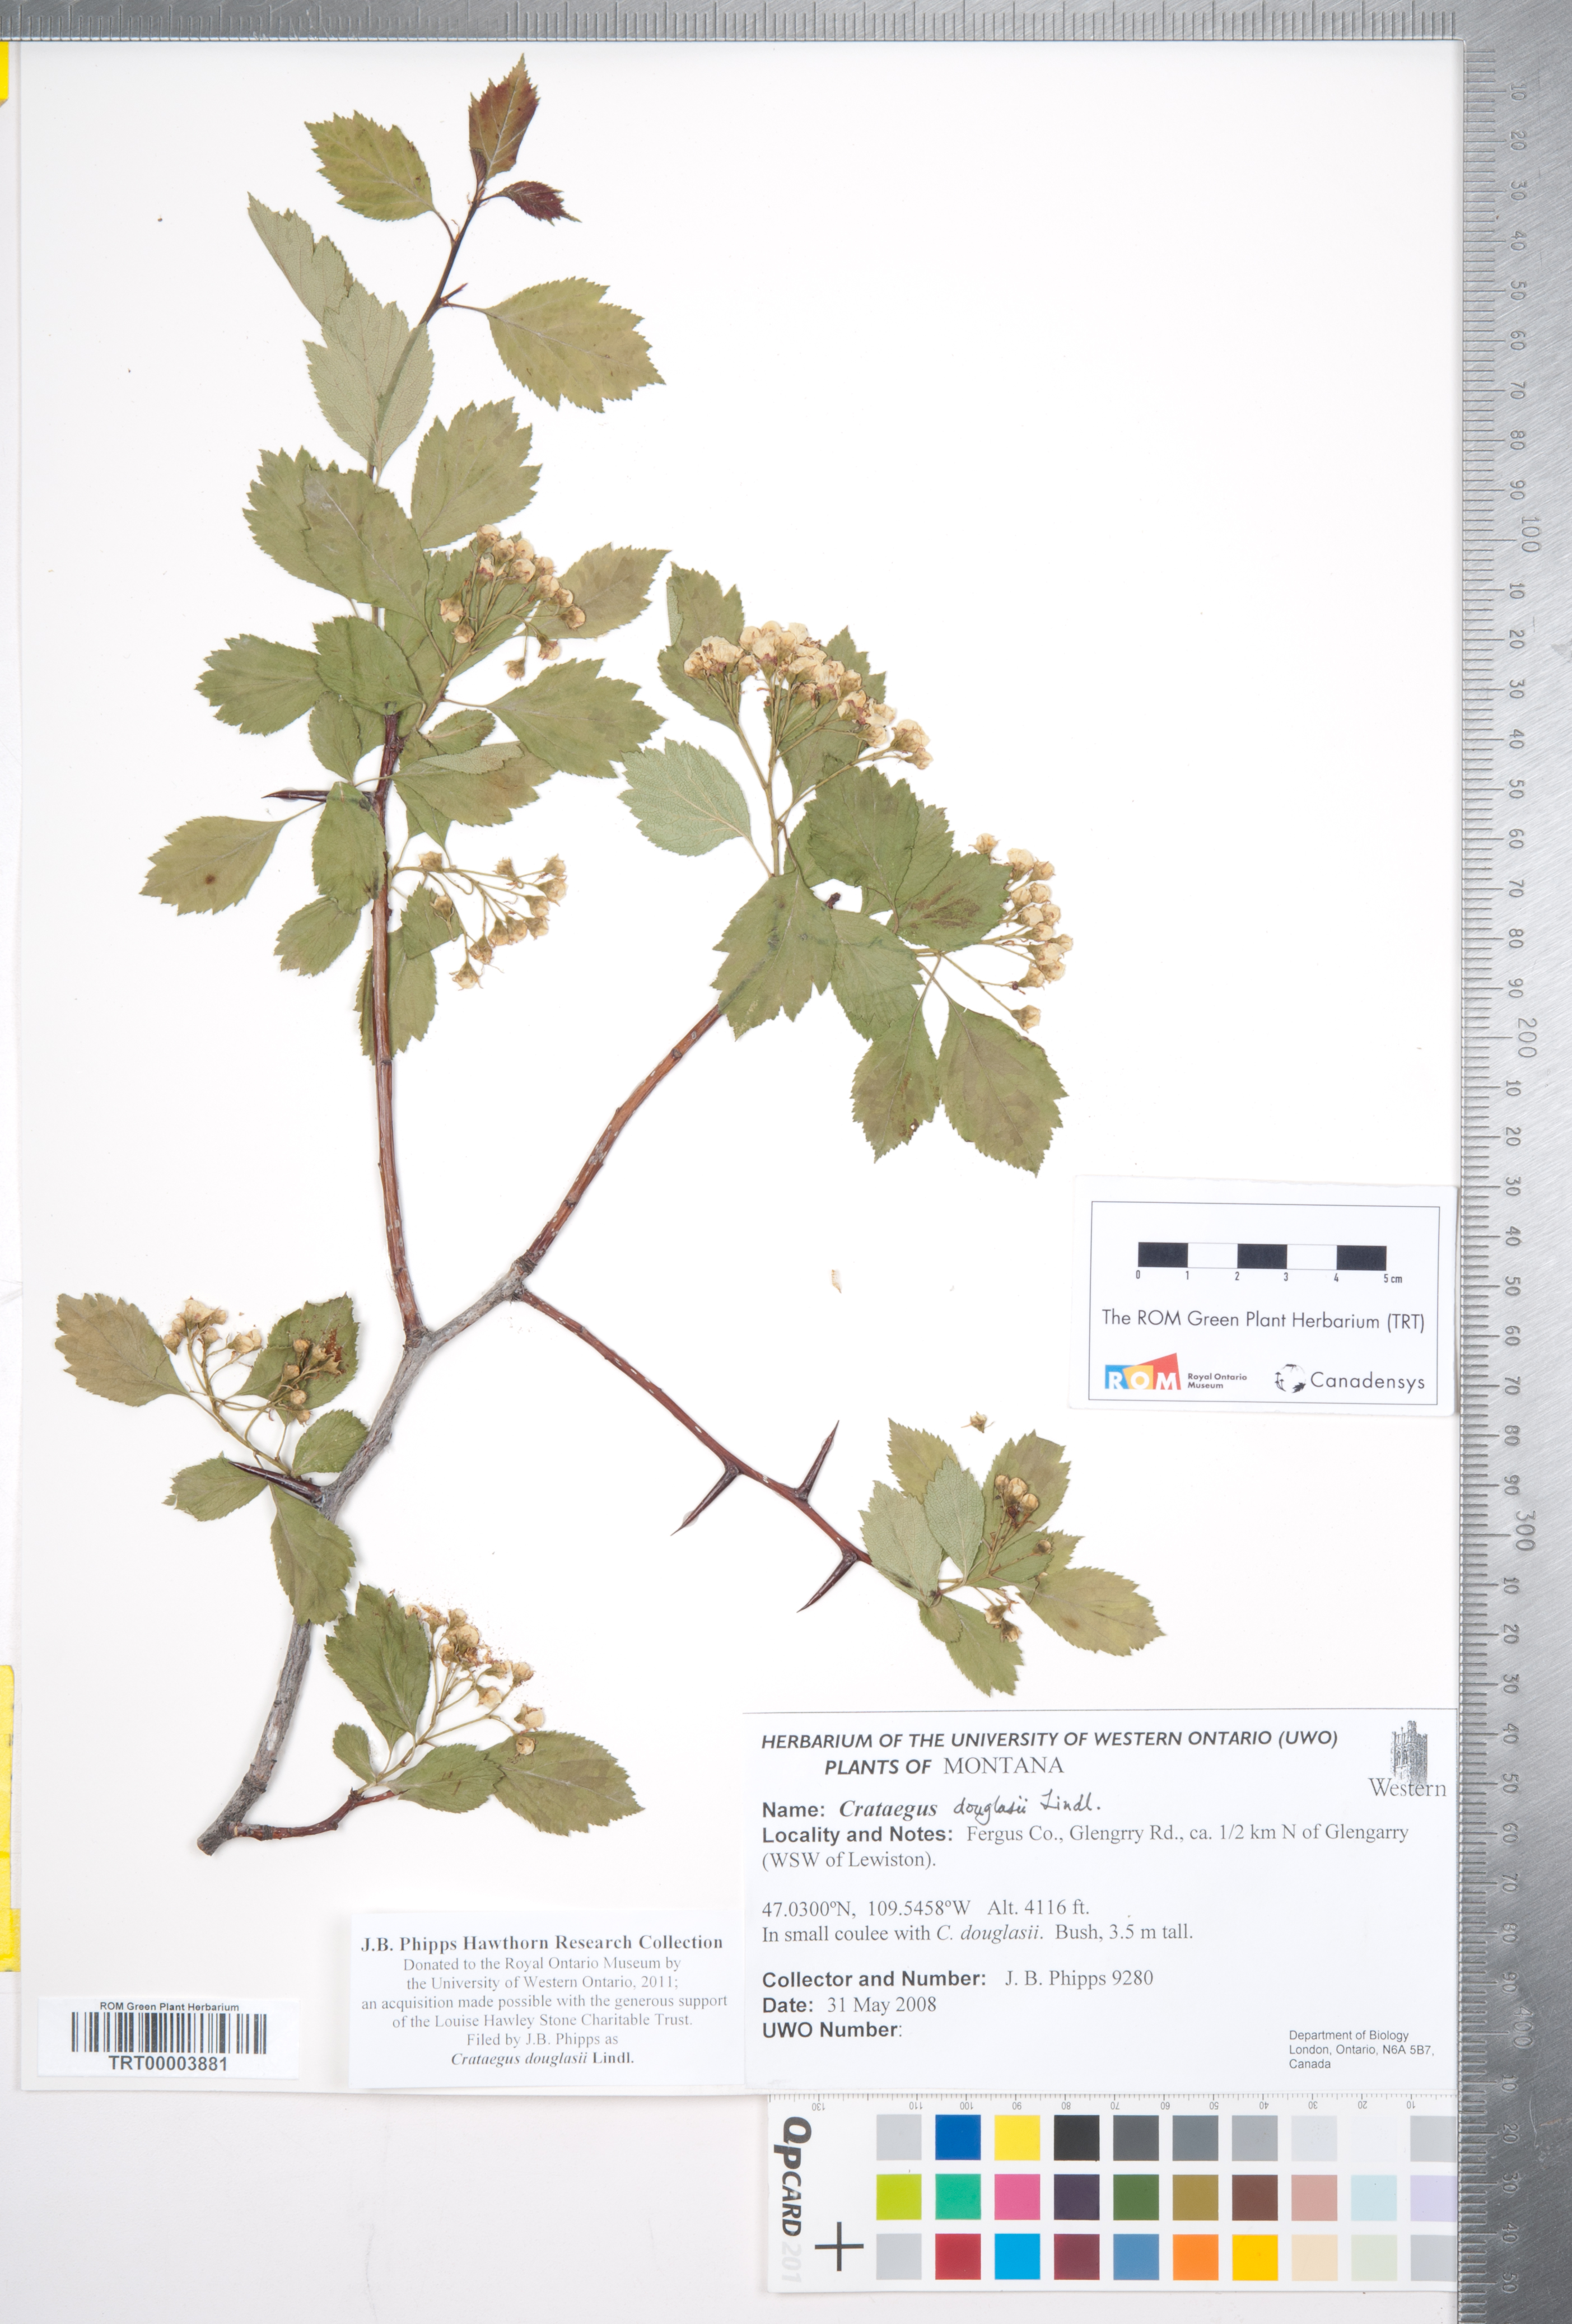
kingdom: Plantae
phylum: Tracheophyta
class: Magnoliopsida
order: Rosales
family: Rosaceae
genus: Crataegus
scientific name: Crataegus douglasii
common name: Black hawthorn
